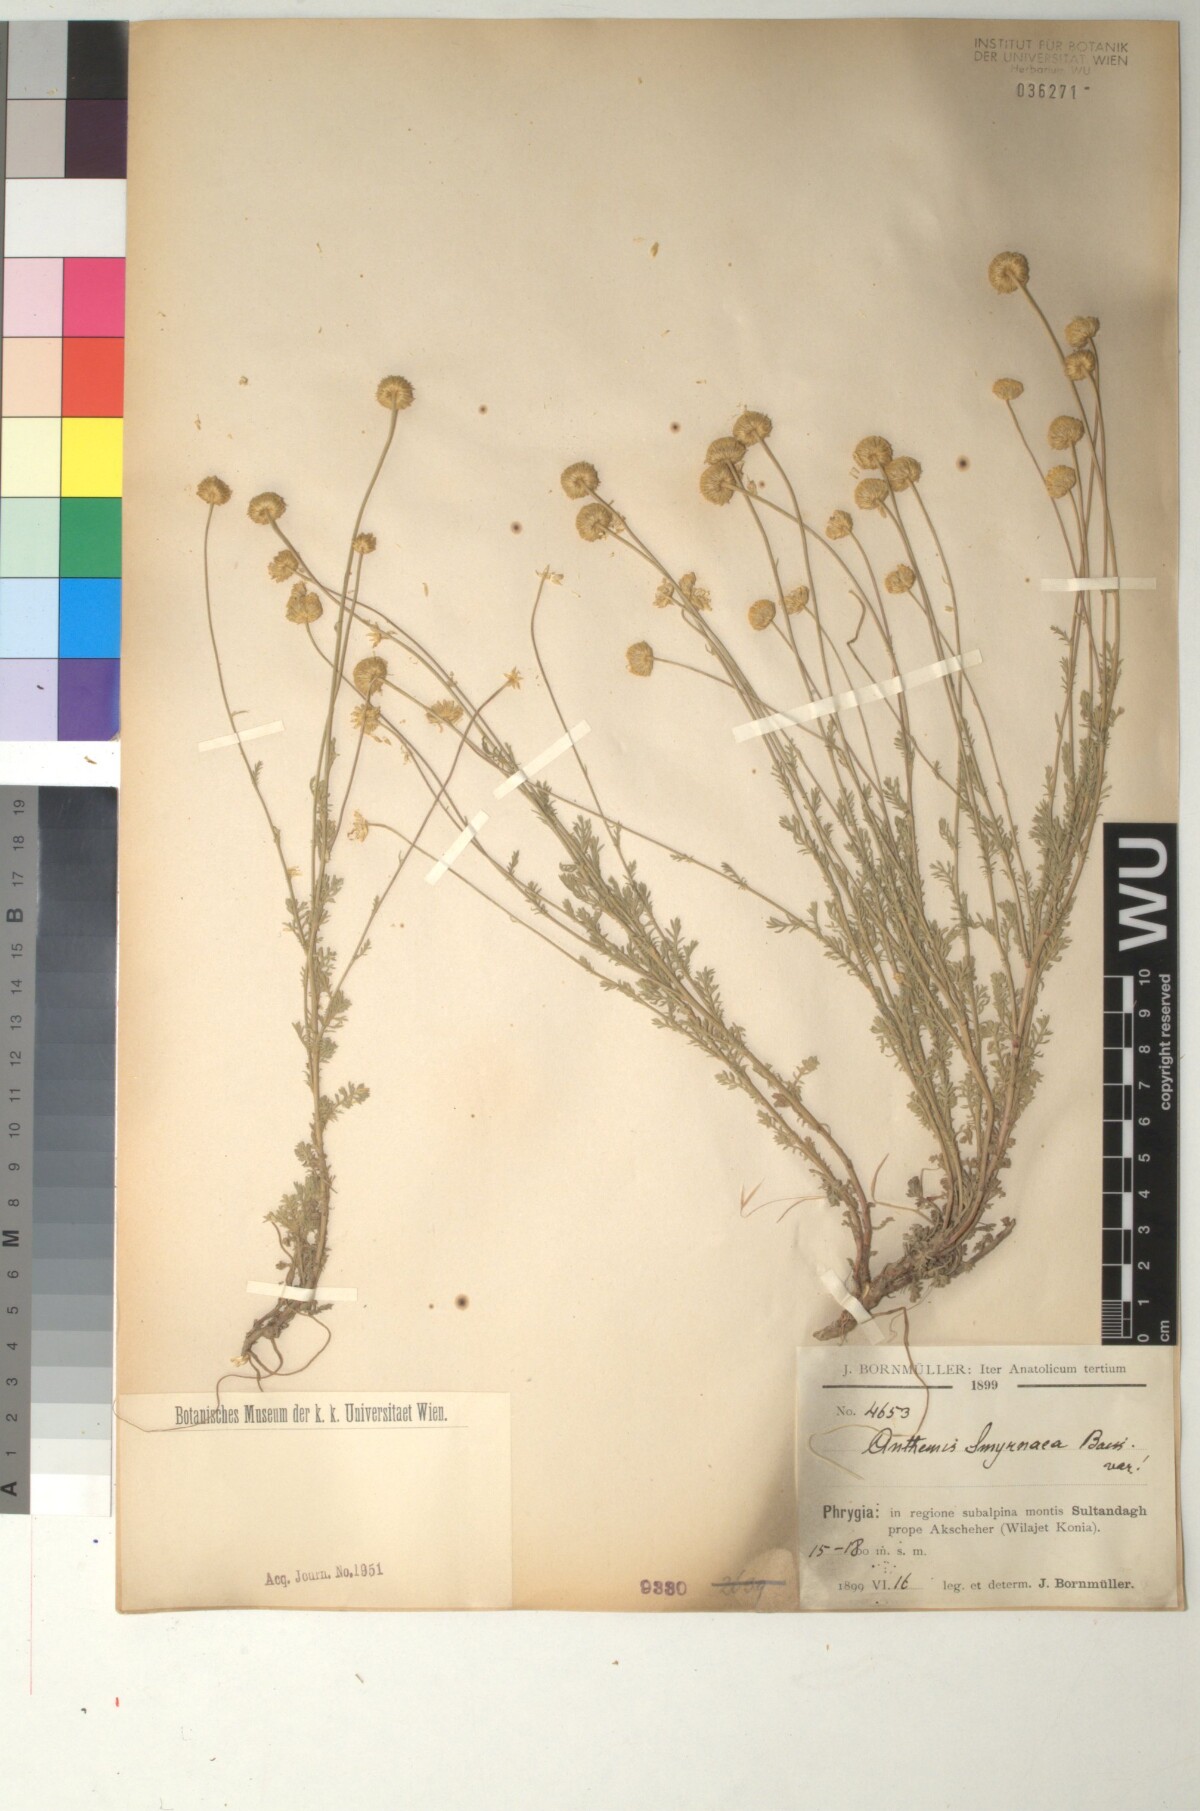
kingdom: Plantae
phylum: Tracheophyta
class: Magnoliopsida
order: Asterales
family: Asteraceae
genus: Anthemis
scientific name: Anthemis cretica
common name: Mountain dog-daisy
